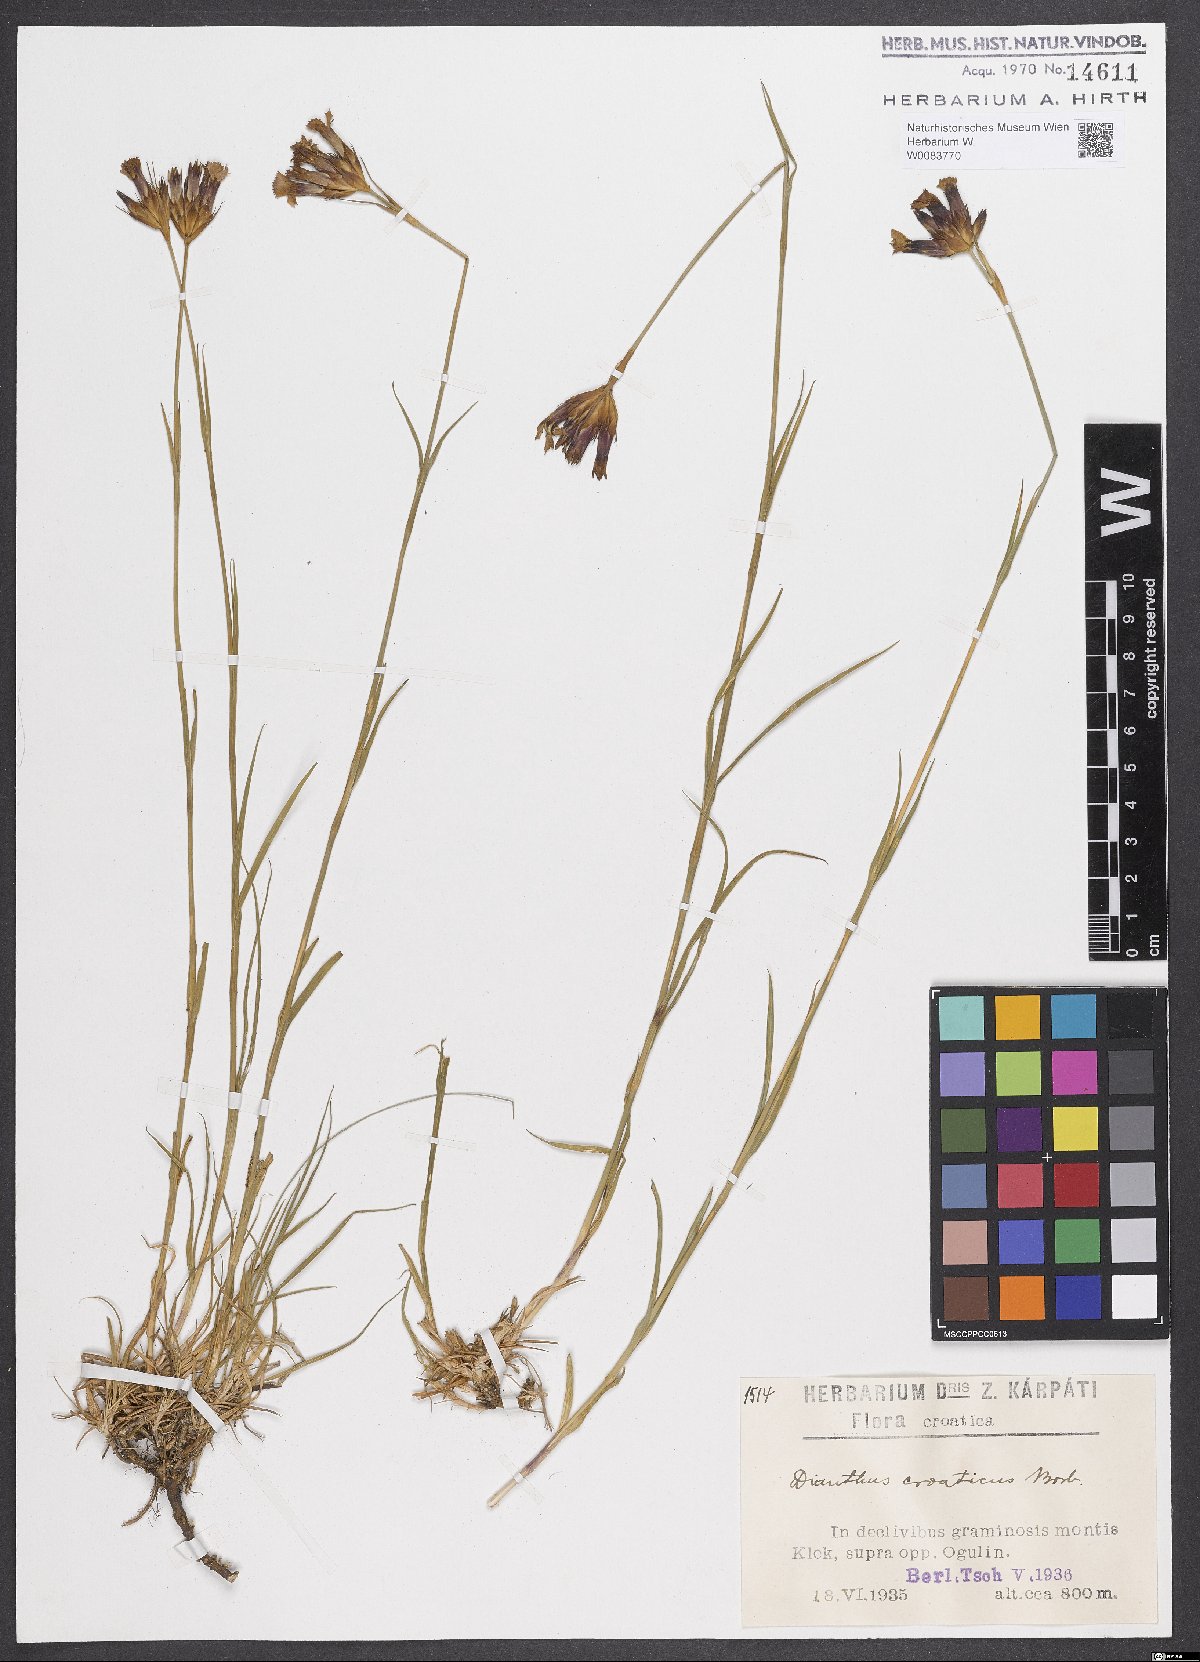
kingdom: Plantae
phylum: Tracheophyta
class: Magnoliopsida
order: Caryophyllales
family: Caryophyllaceae
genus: Dianthus
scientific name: Dianthus giganteus
